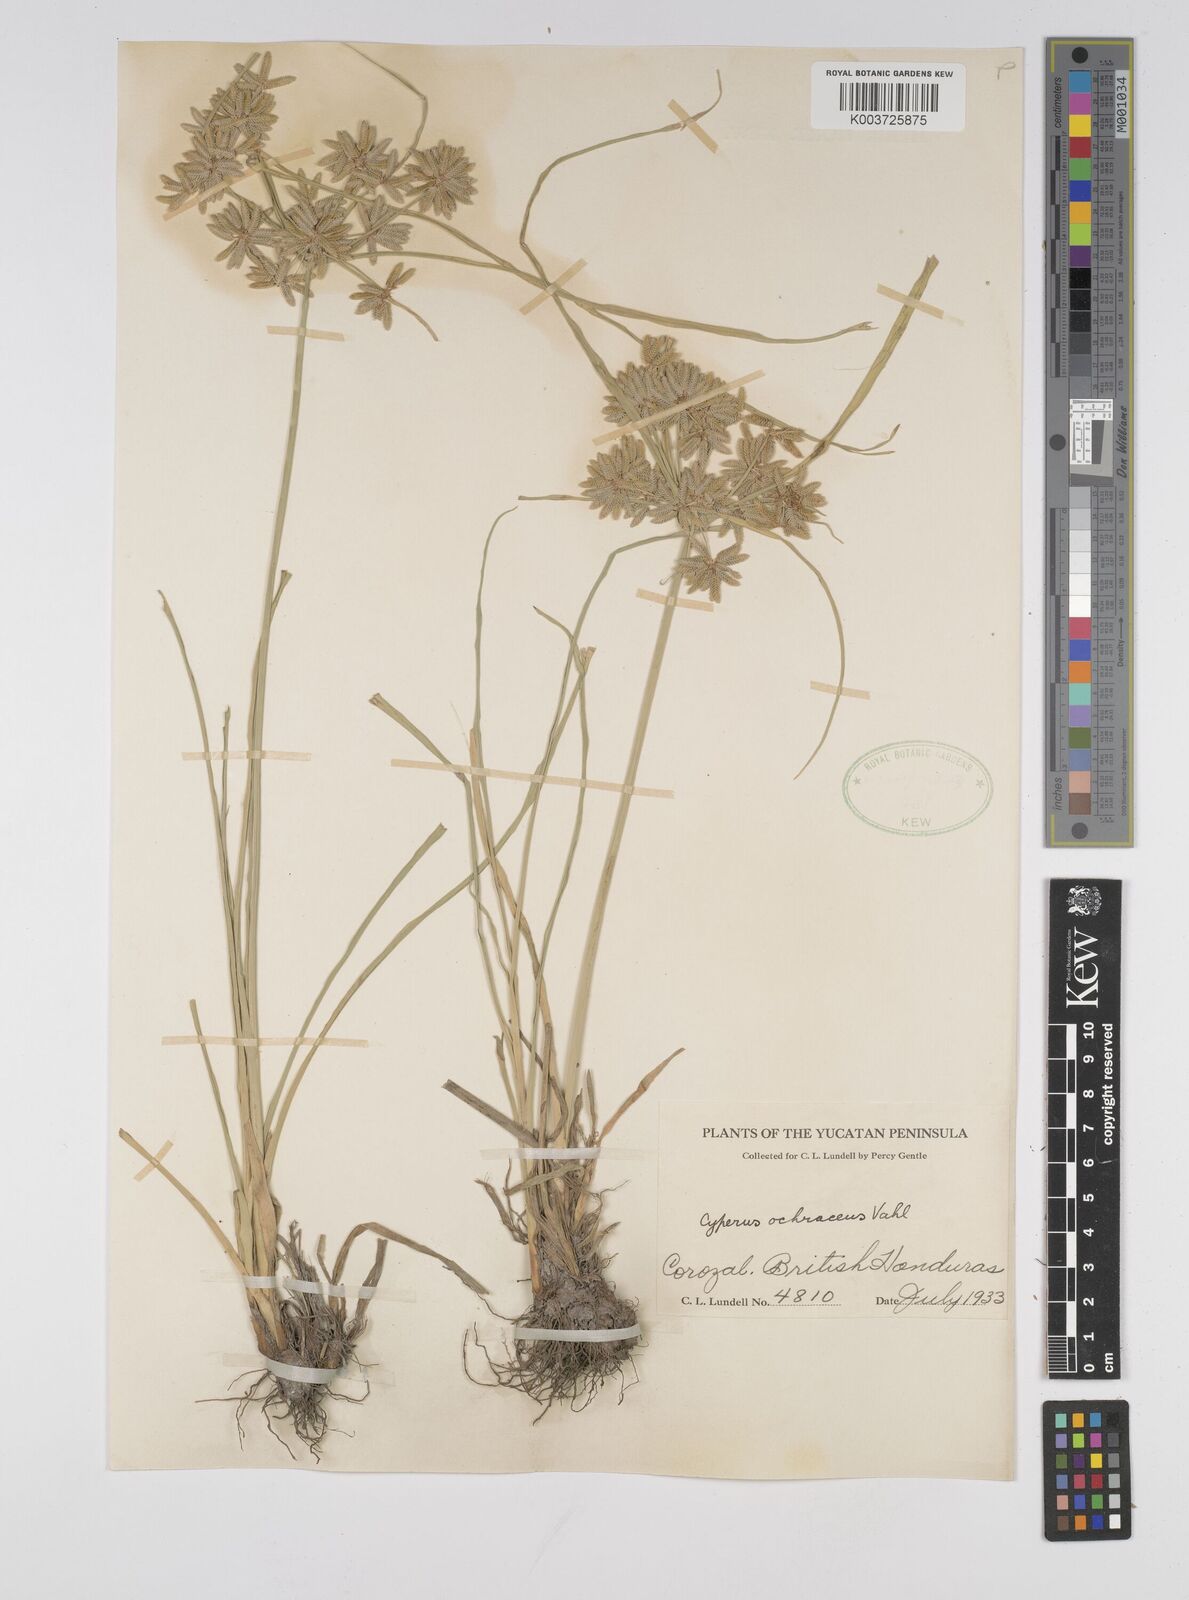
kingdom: Plantae
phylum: Tracheophyta
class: Liliopsida
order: Poales
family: Cyperaceae
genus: Cyperus
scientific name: Cyperus ochraceus
